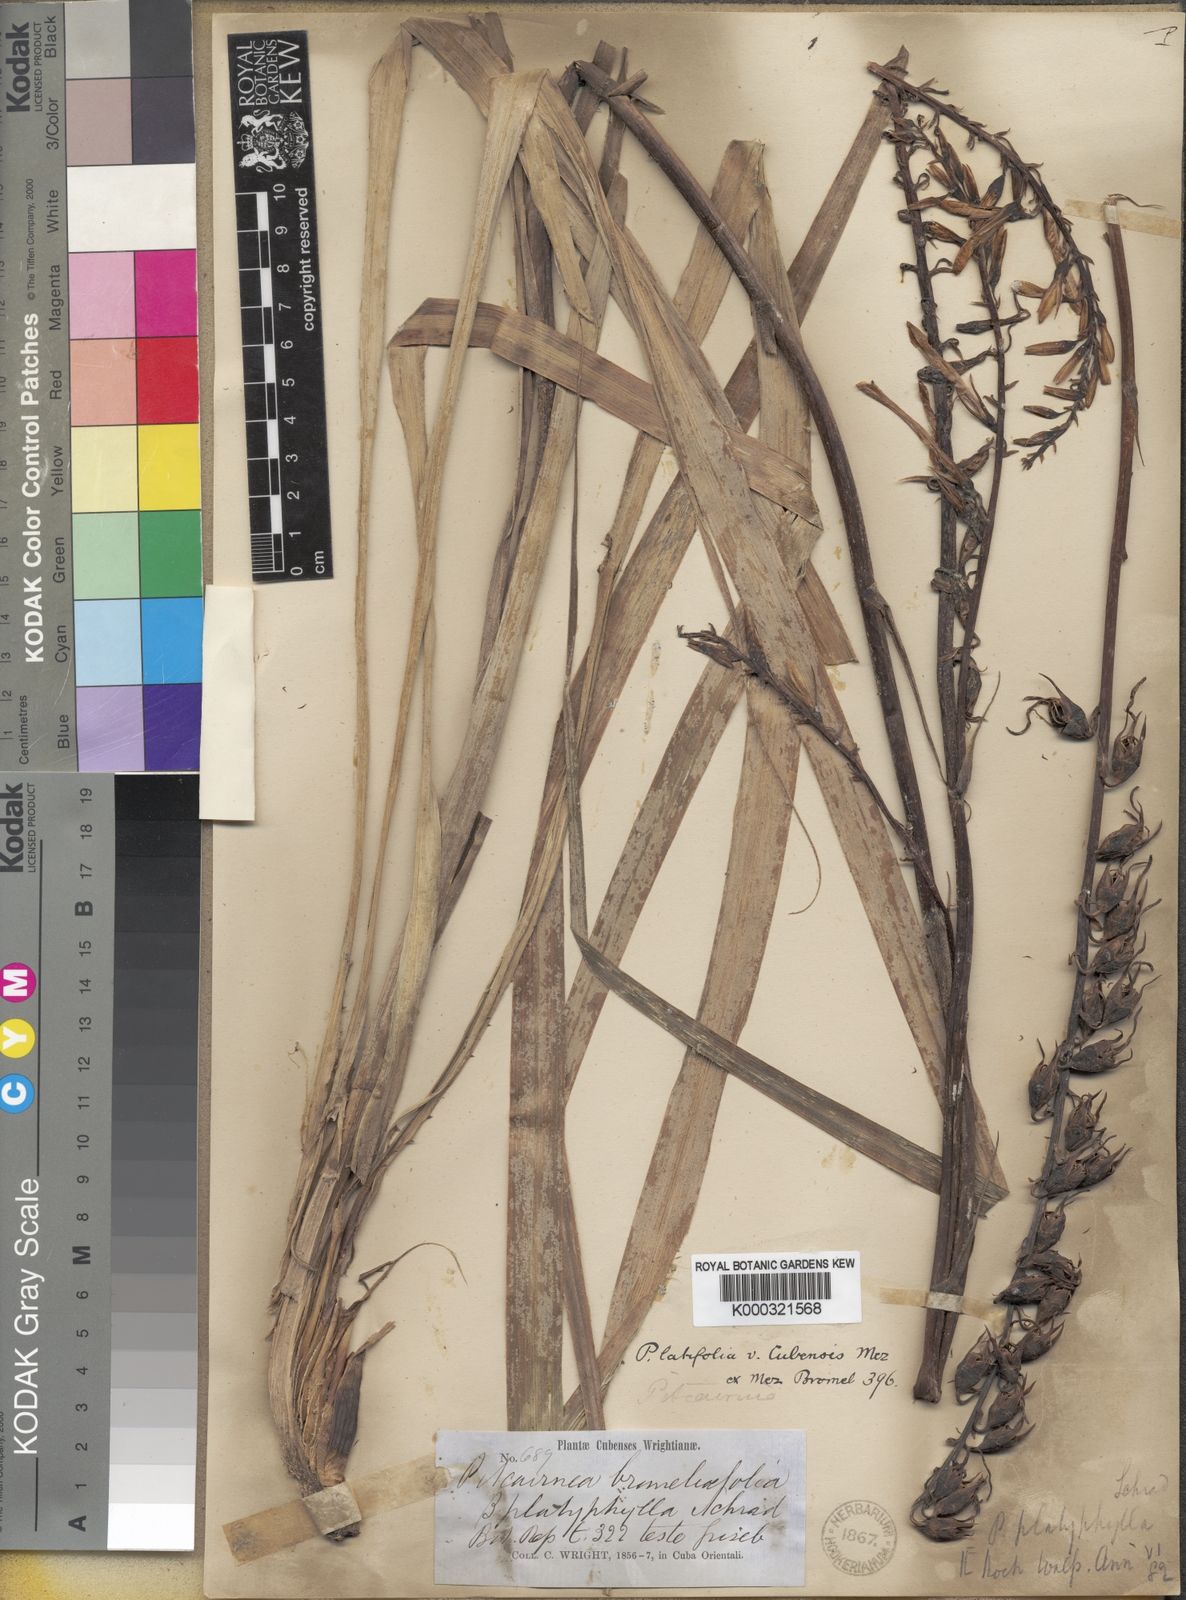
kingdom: Plantae
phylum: Tracheophyta
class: Liliopsida
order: Poales
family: Bromeliaceae
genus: Pitcairnia
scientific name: Pitcairnia cubensis
